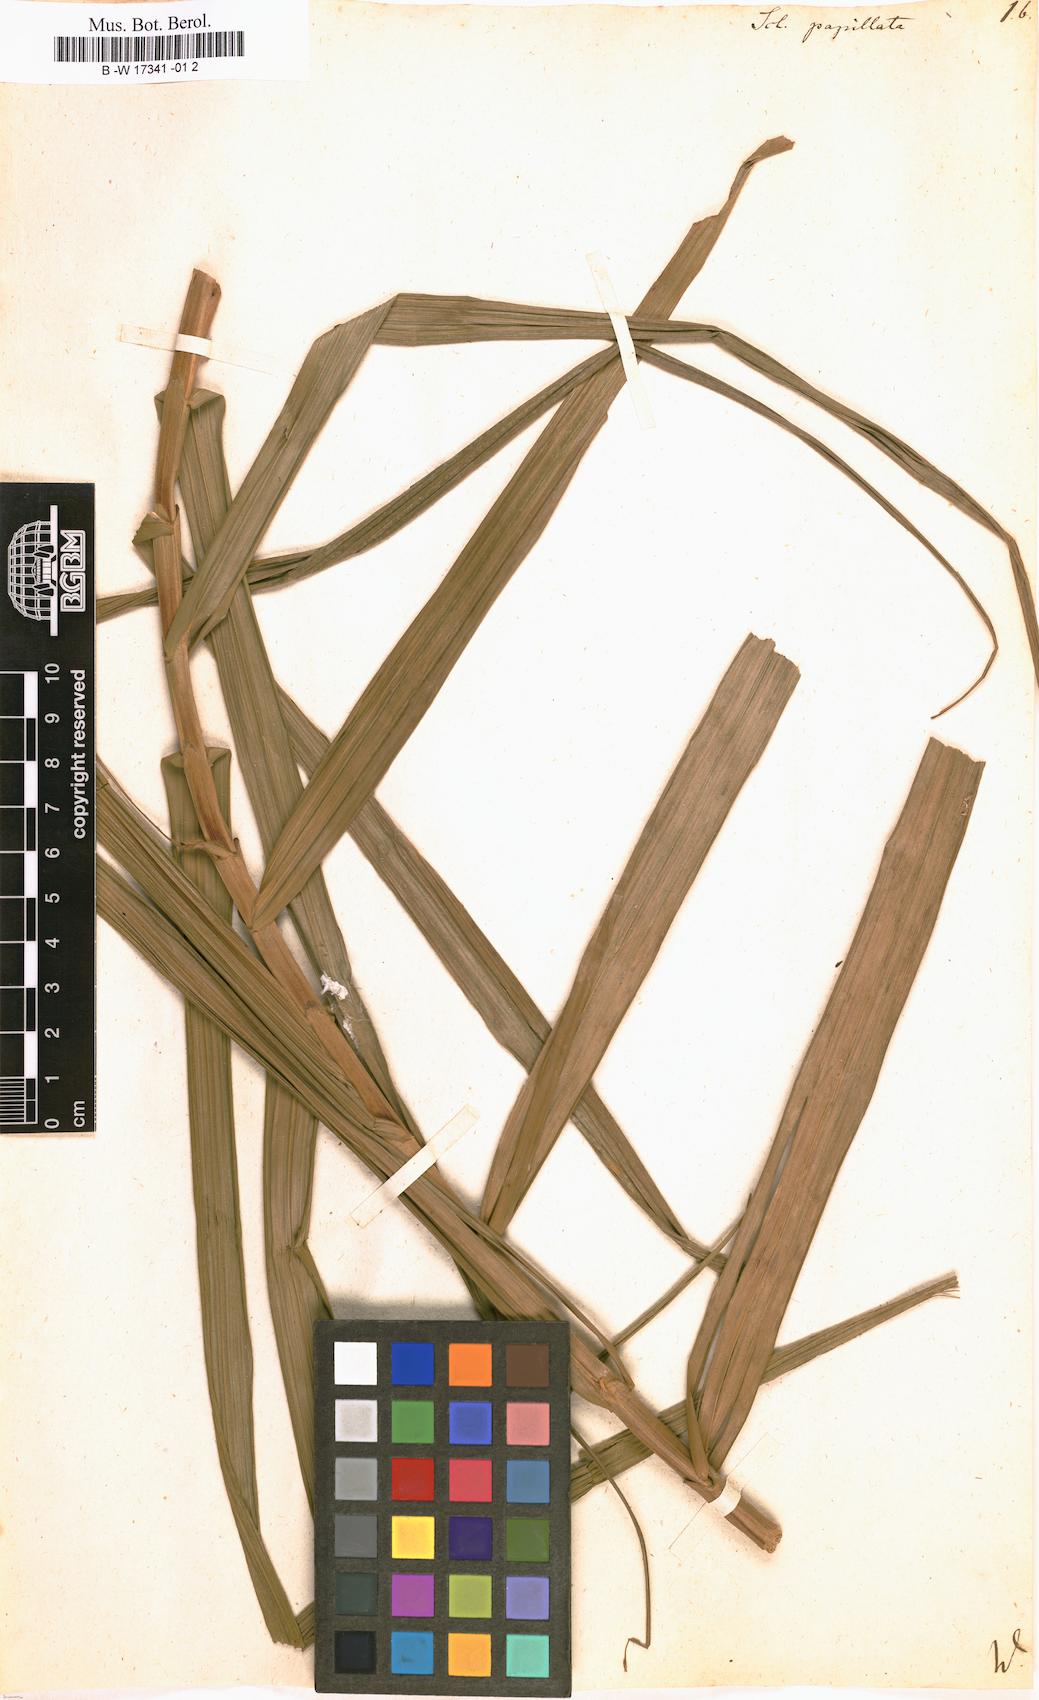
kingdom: Plantae
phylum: Tracheophyta
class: Liliopsida
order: Poales
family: Cyperaceae
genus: Scleria
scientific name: Scleria bracteata
